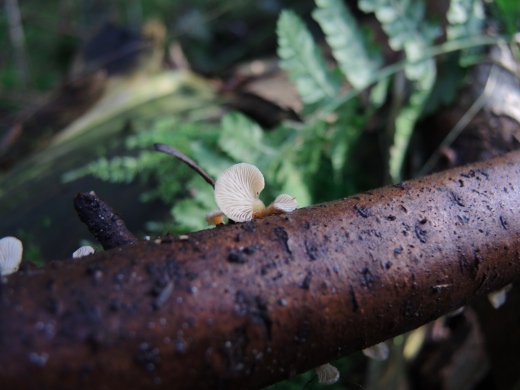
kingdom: Fungi
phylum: Basidiomycota
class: Agaricomycetes
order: Agaricales
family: Mycenaceae
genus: Panellus
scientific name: Panellus mitis
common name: mild epaulethat
